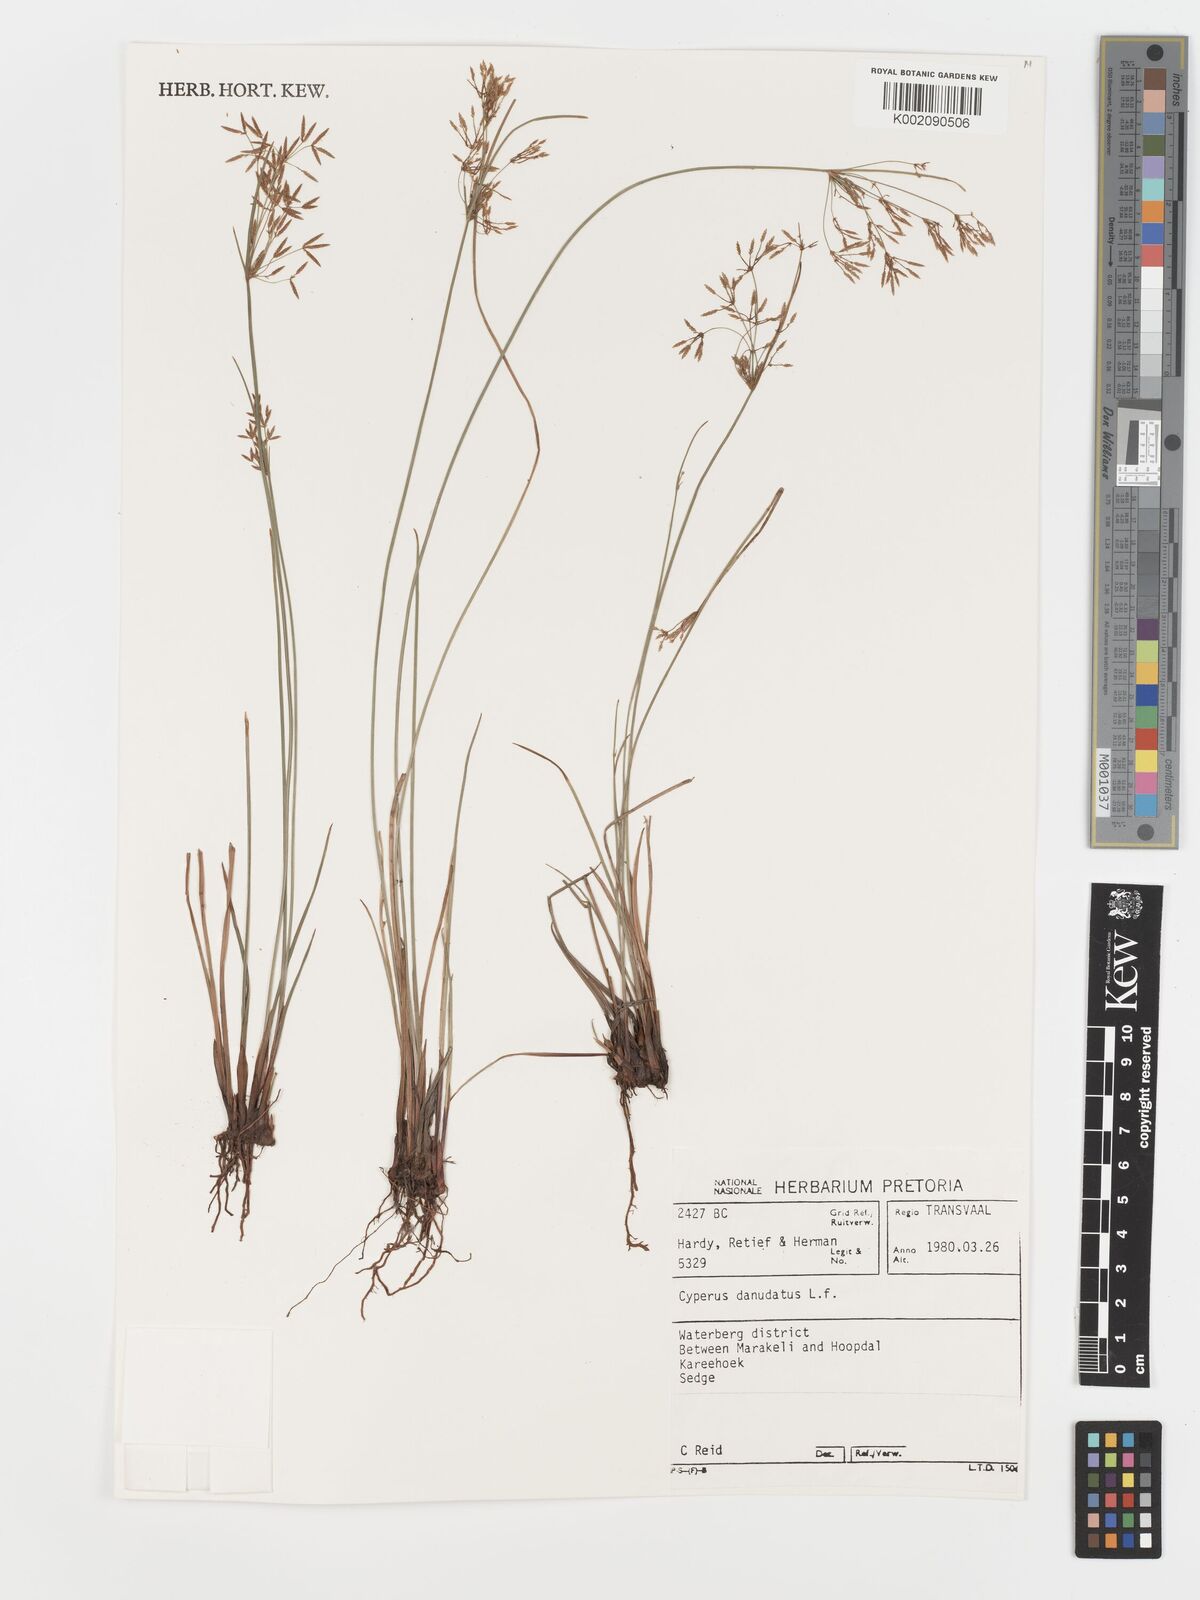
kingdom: Plantae
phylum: Tracheophyta
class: Liliopsida
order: Poales
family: Cyperaceae
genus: Cyperus
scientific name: Cyperus sphaerospermus
